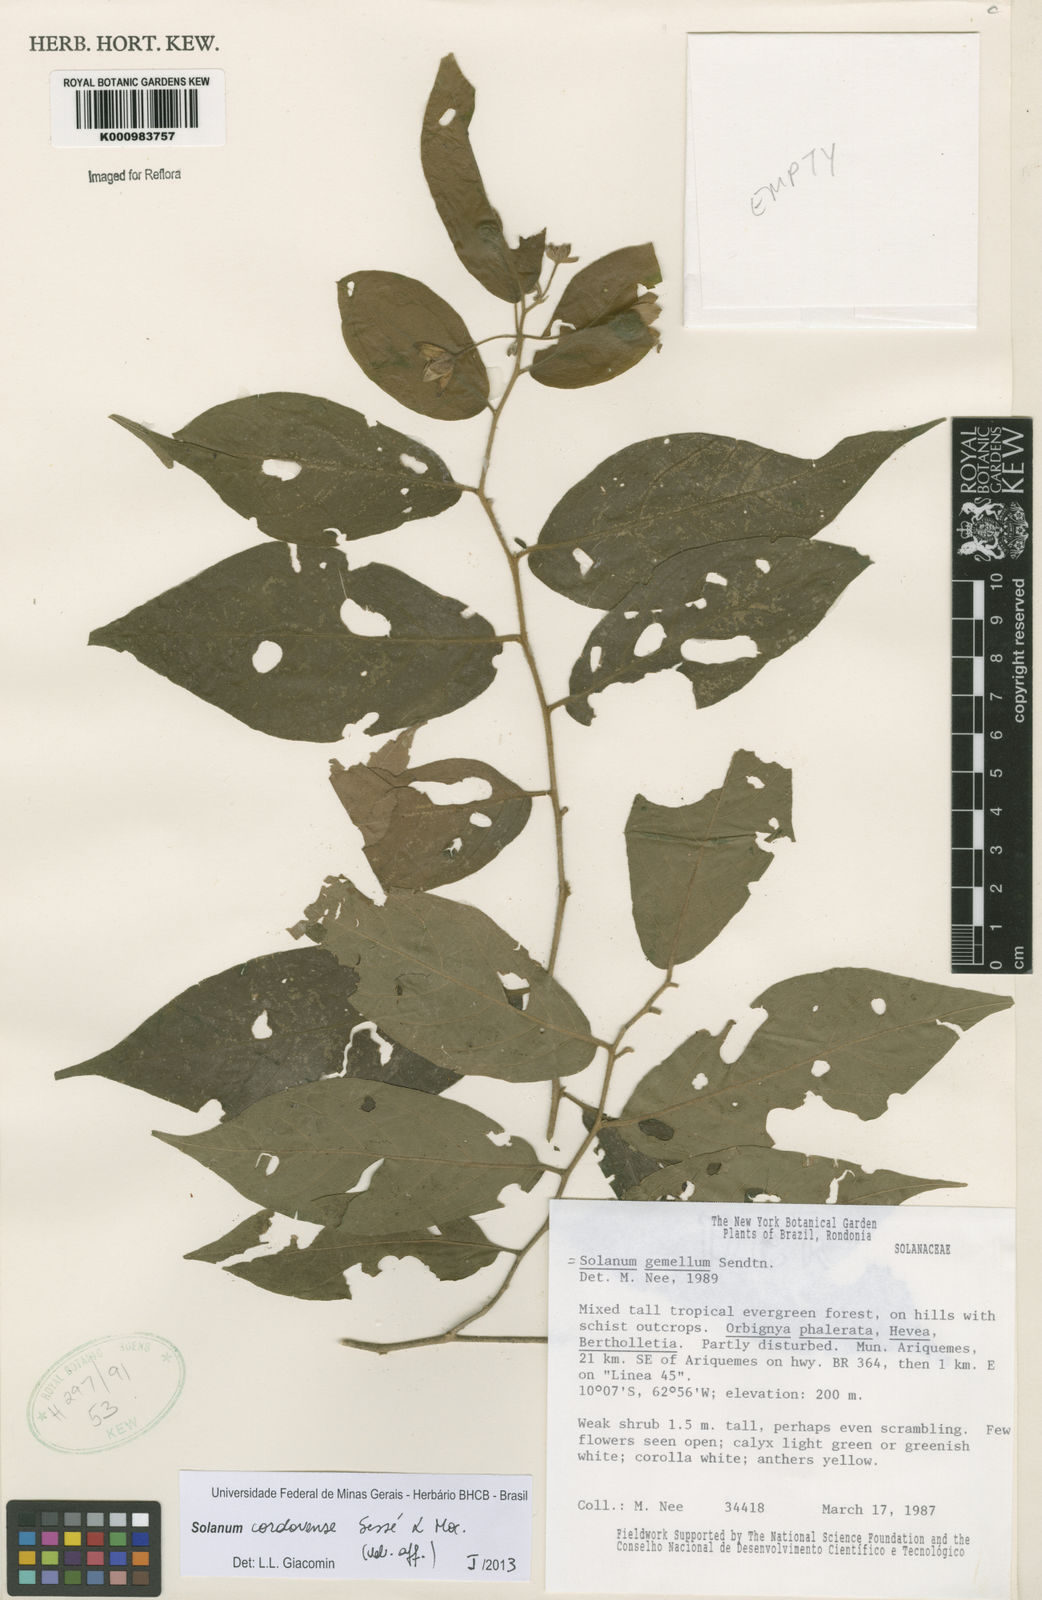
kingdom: Plantae
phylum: Tracheophyta
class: Magnoliopsida
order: Solanales
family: Solanaceae
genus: Solanum
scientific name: Solanum
